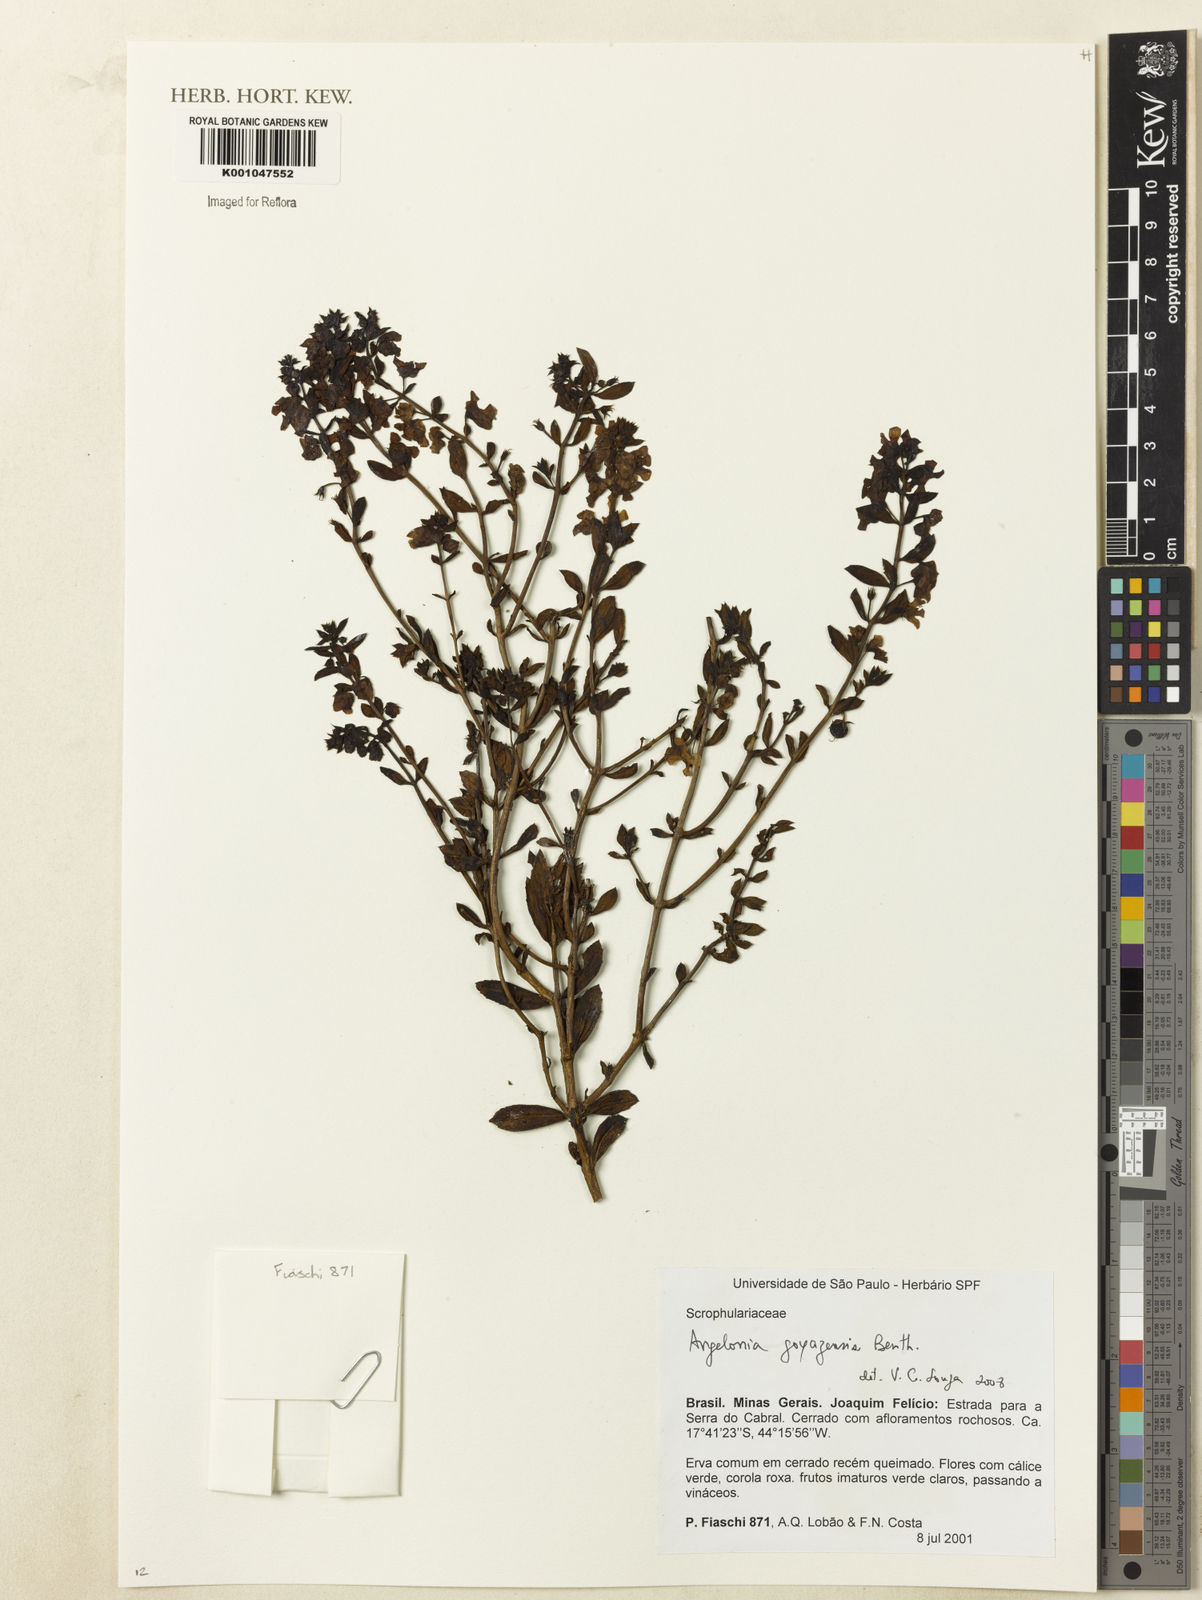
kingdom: Plantae
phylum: Tracheophyta
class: Magnoliopsida
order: Lamiales
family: Plantaginaceae
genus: Angelonia
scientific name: Angelonia goyazensis
